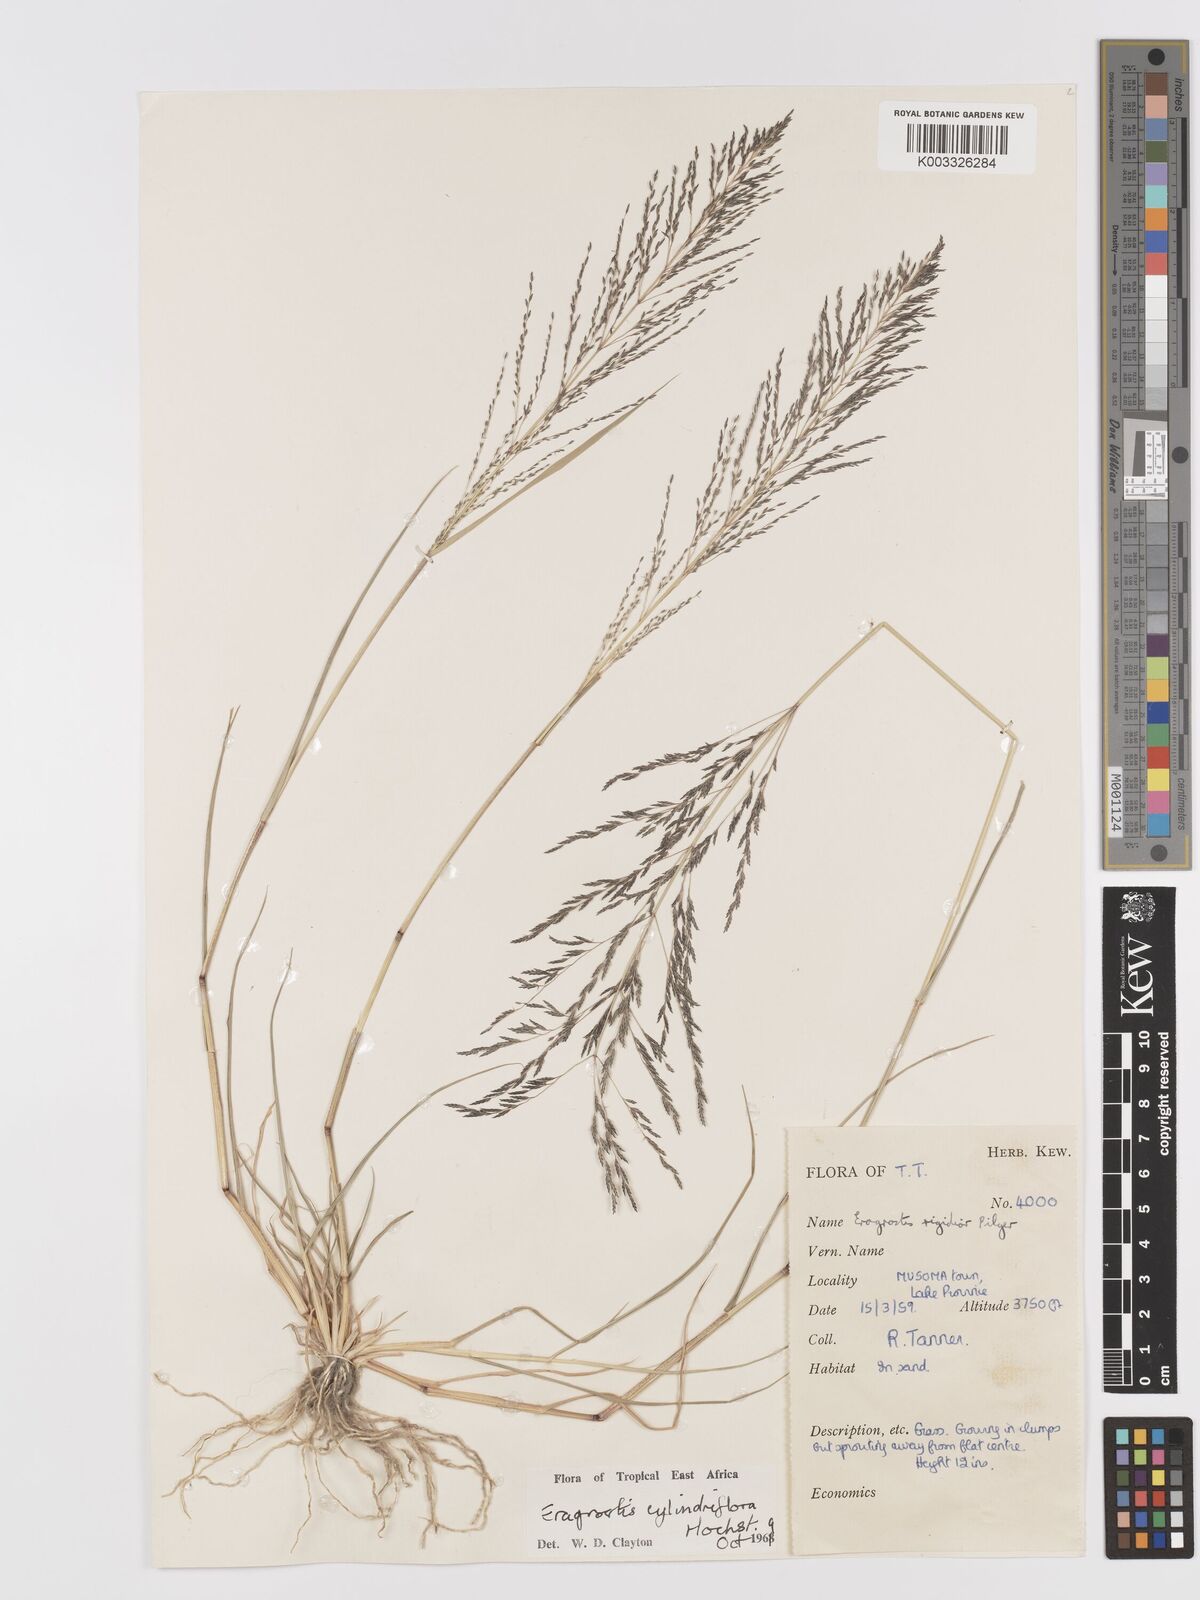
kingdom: Plantae
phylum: Tracheophyta
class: Liliopsida
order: Poales
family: Poaceae
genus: Eragrostis
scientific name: Eragrostis cylindriflora
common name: Cylinderflower lovegrass
